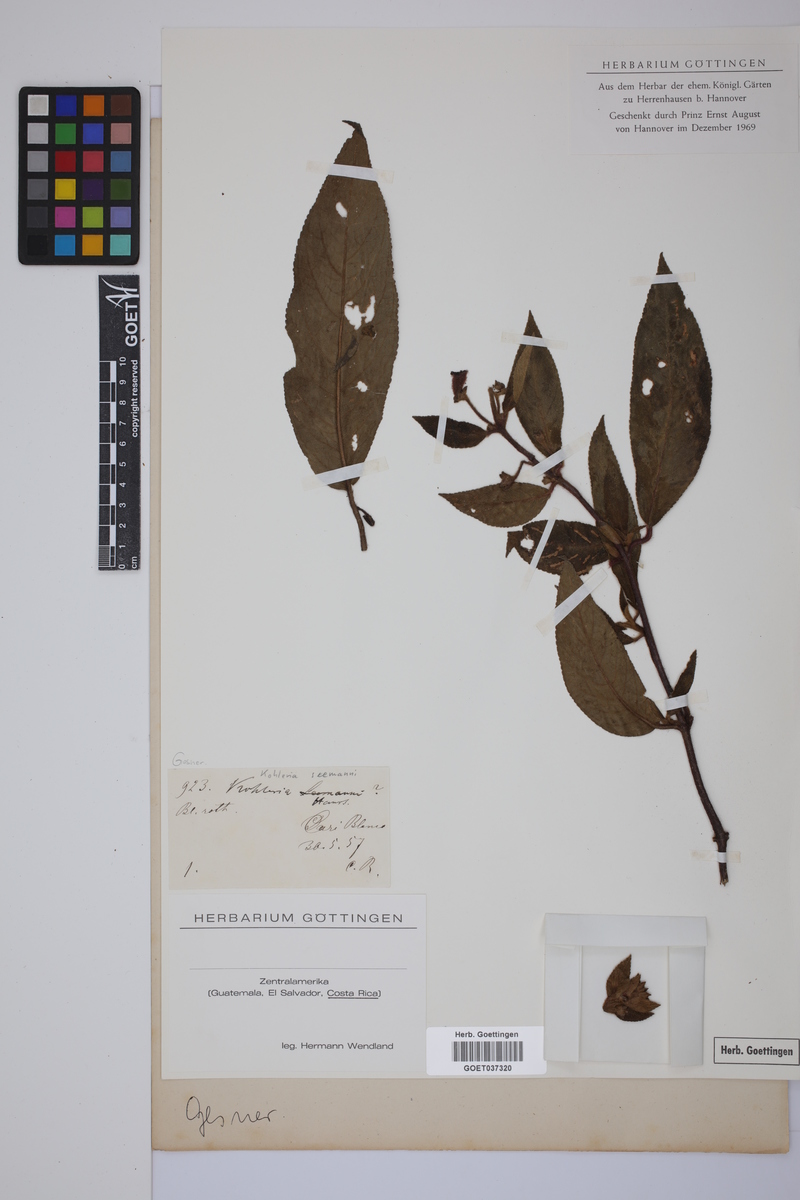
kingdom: Plantae
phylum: Tracheophyta
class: Magnoliopsida
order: Lamiales
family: Gesneriaceae
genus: Kohleria
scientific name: Kohleria spicata
